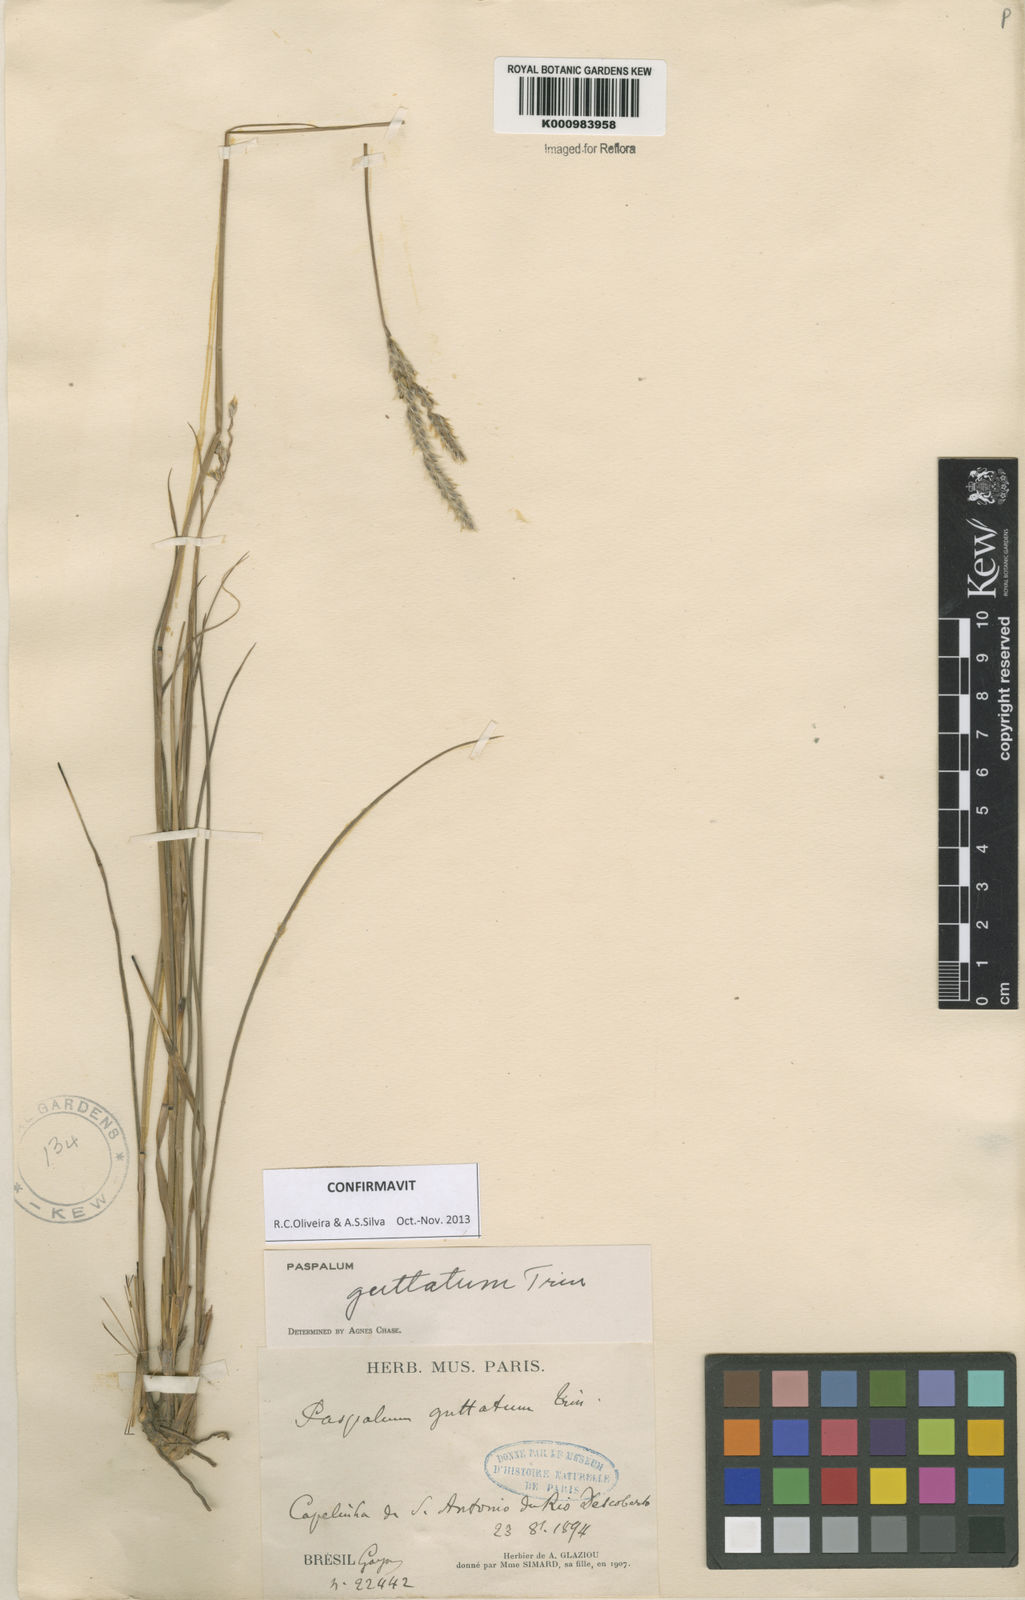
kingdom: Plantae
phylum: Tracheophyta
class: Liliopsida
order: Poales
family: Poaceae
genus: Paspalum
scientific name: Paspalum ammodes
